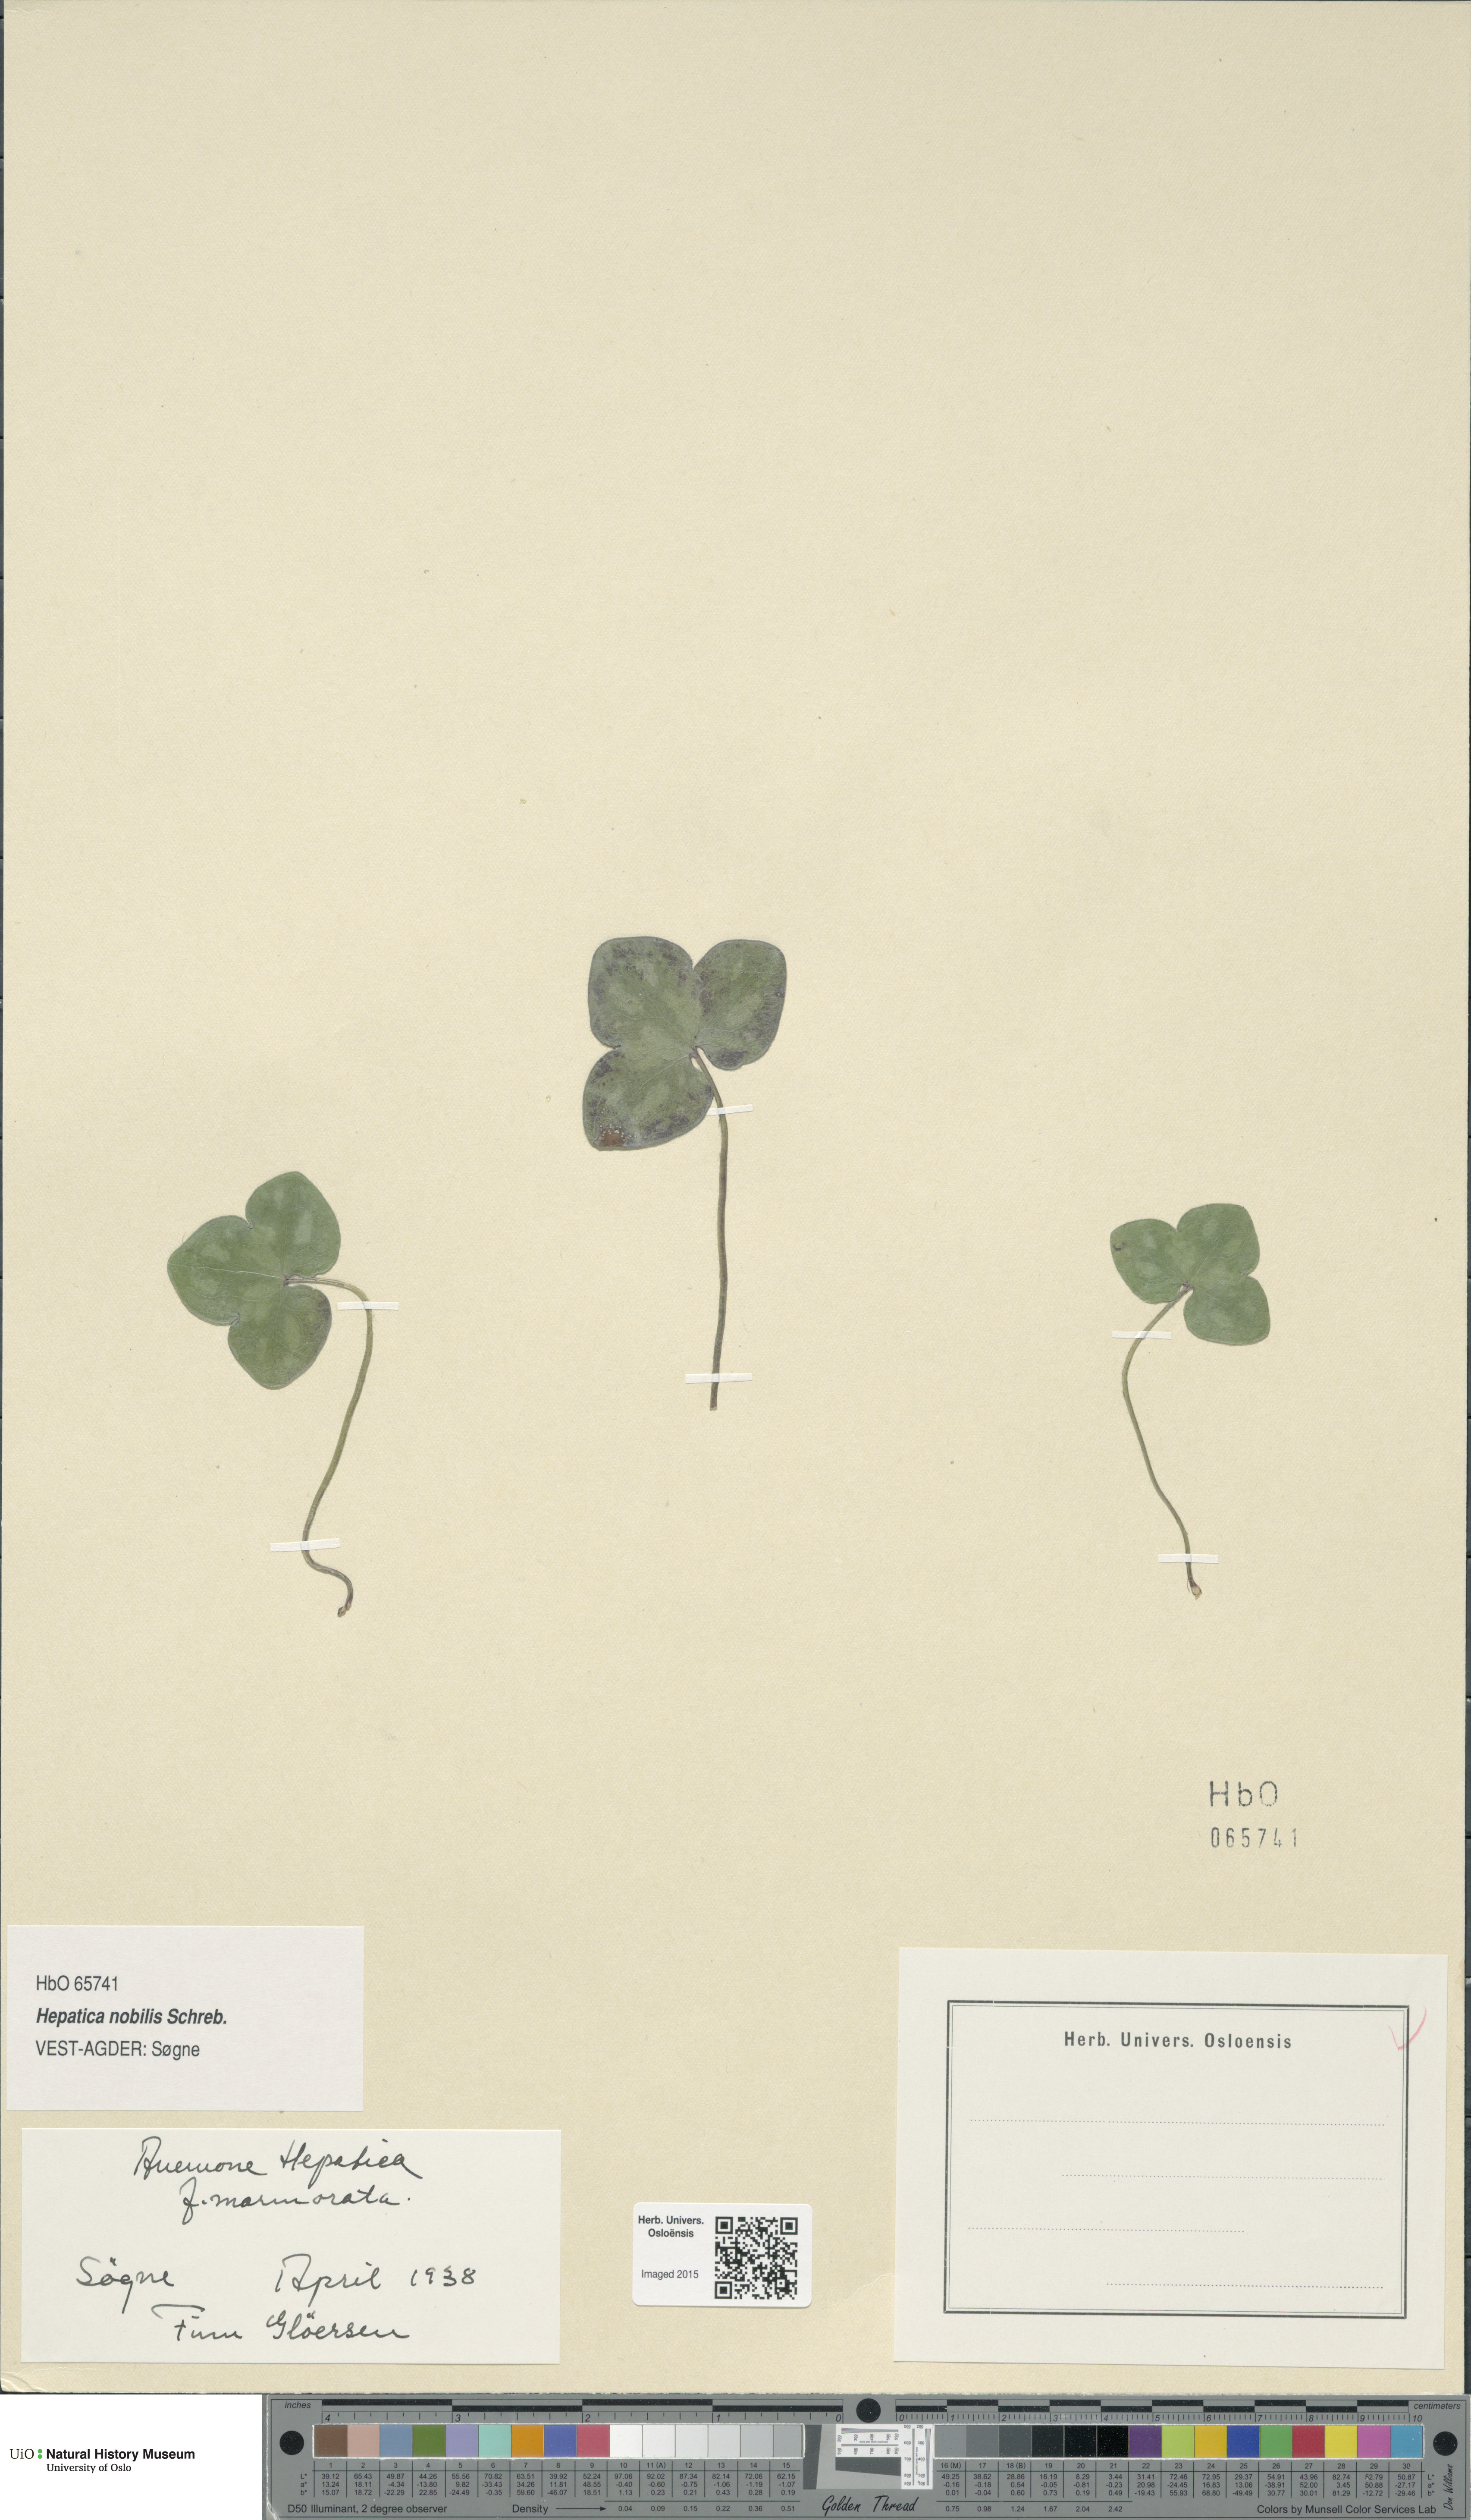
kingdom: Plantae
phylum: Tracheophyta
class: Magnoliopsida
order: Ranunculales
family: Ranunculaceae
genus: Hepatica
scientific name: Hepatica nobilis
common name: Liverleaf
